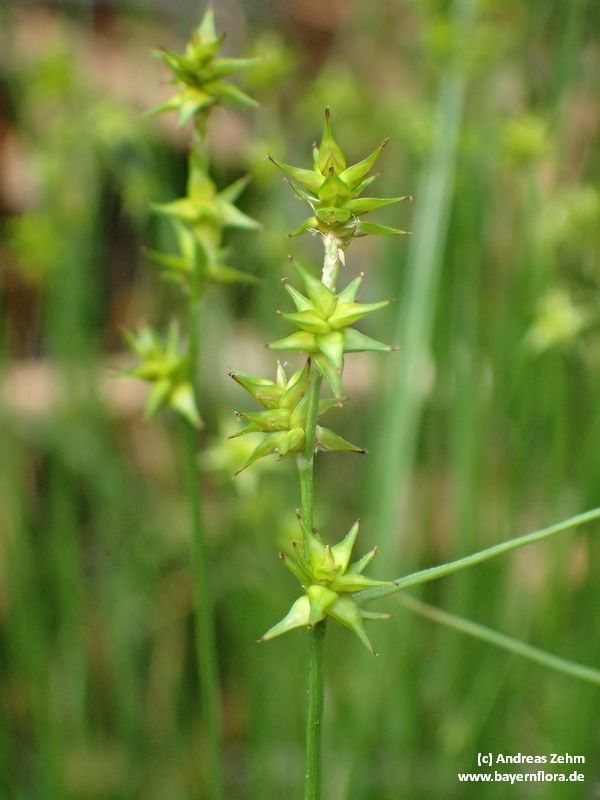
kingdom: Plantae
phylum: Tracheophyta
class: Liliopsida
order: Poales
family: Cyperaceae
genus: Carex
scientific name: Carex echinata
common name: Star sedge
